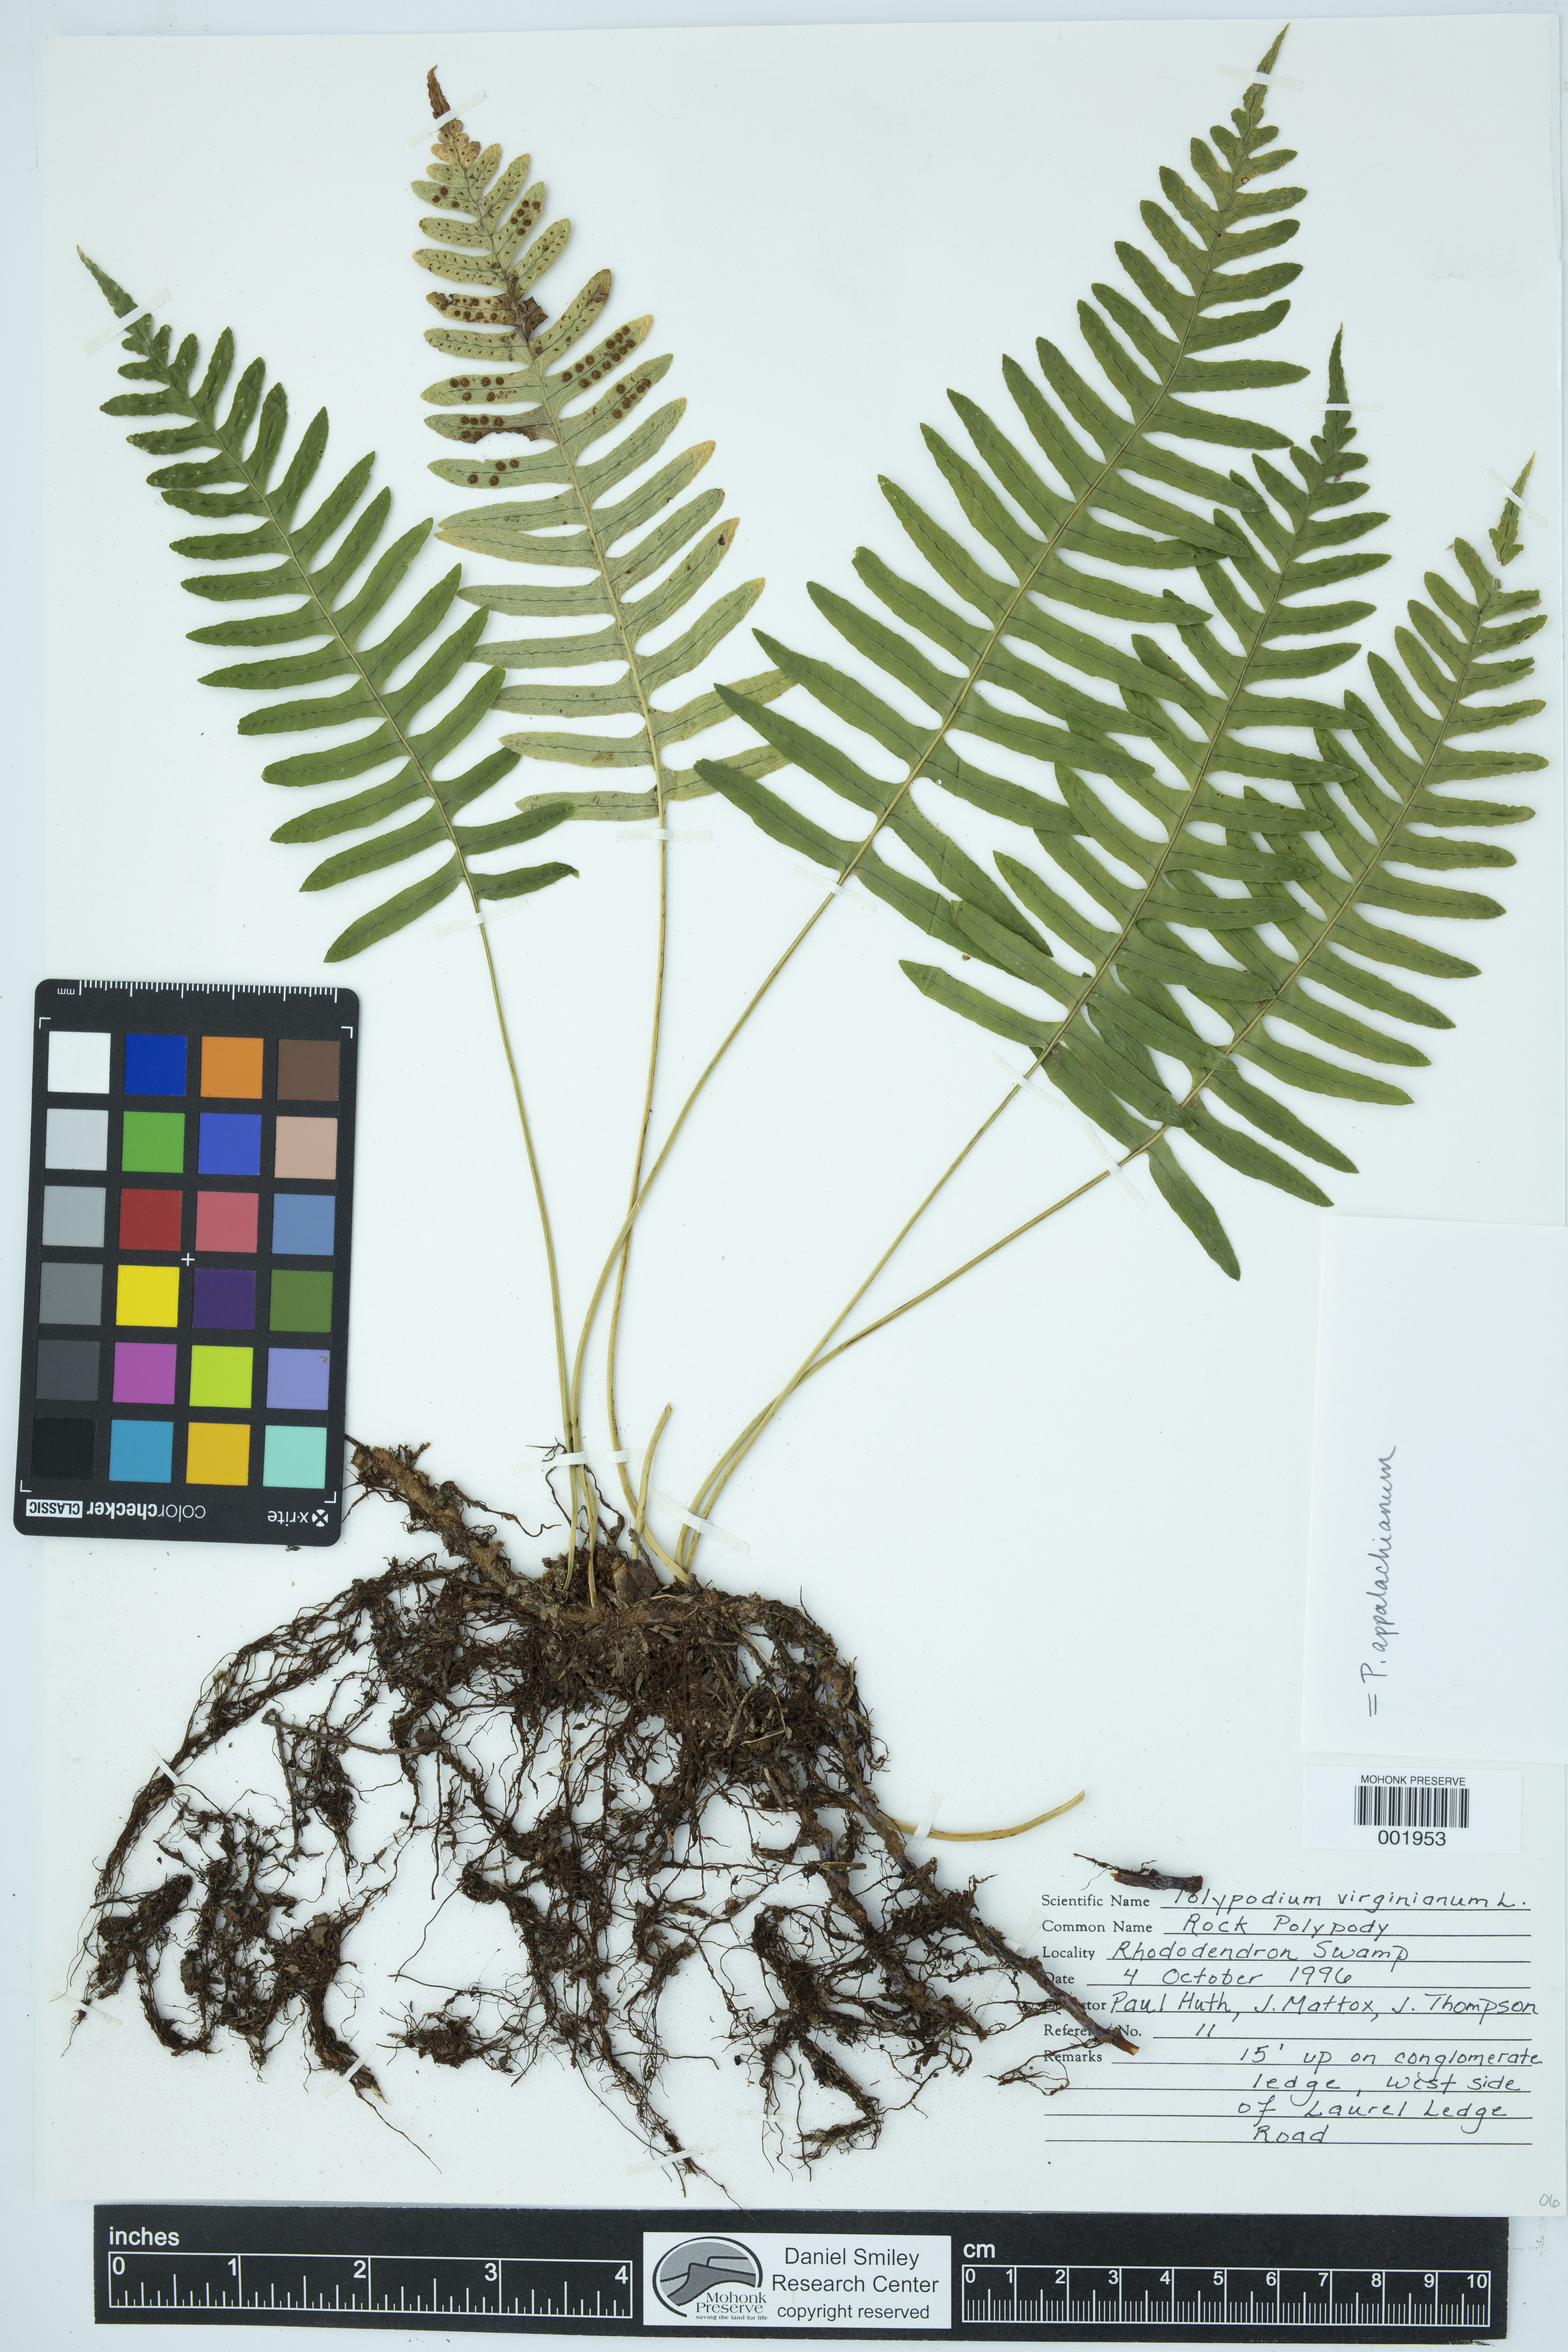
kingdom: Plantae
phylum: Tracheophyta
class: Polypodiopsida
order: Polypodiales
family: Polypodiaceae
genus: Polypodium
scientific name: Polypodium virginianum
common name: American wall fern
